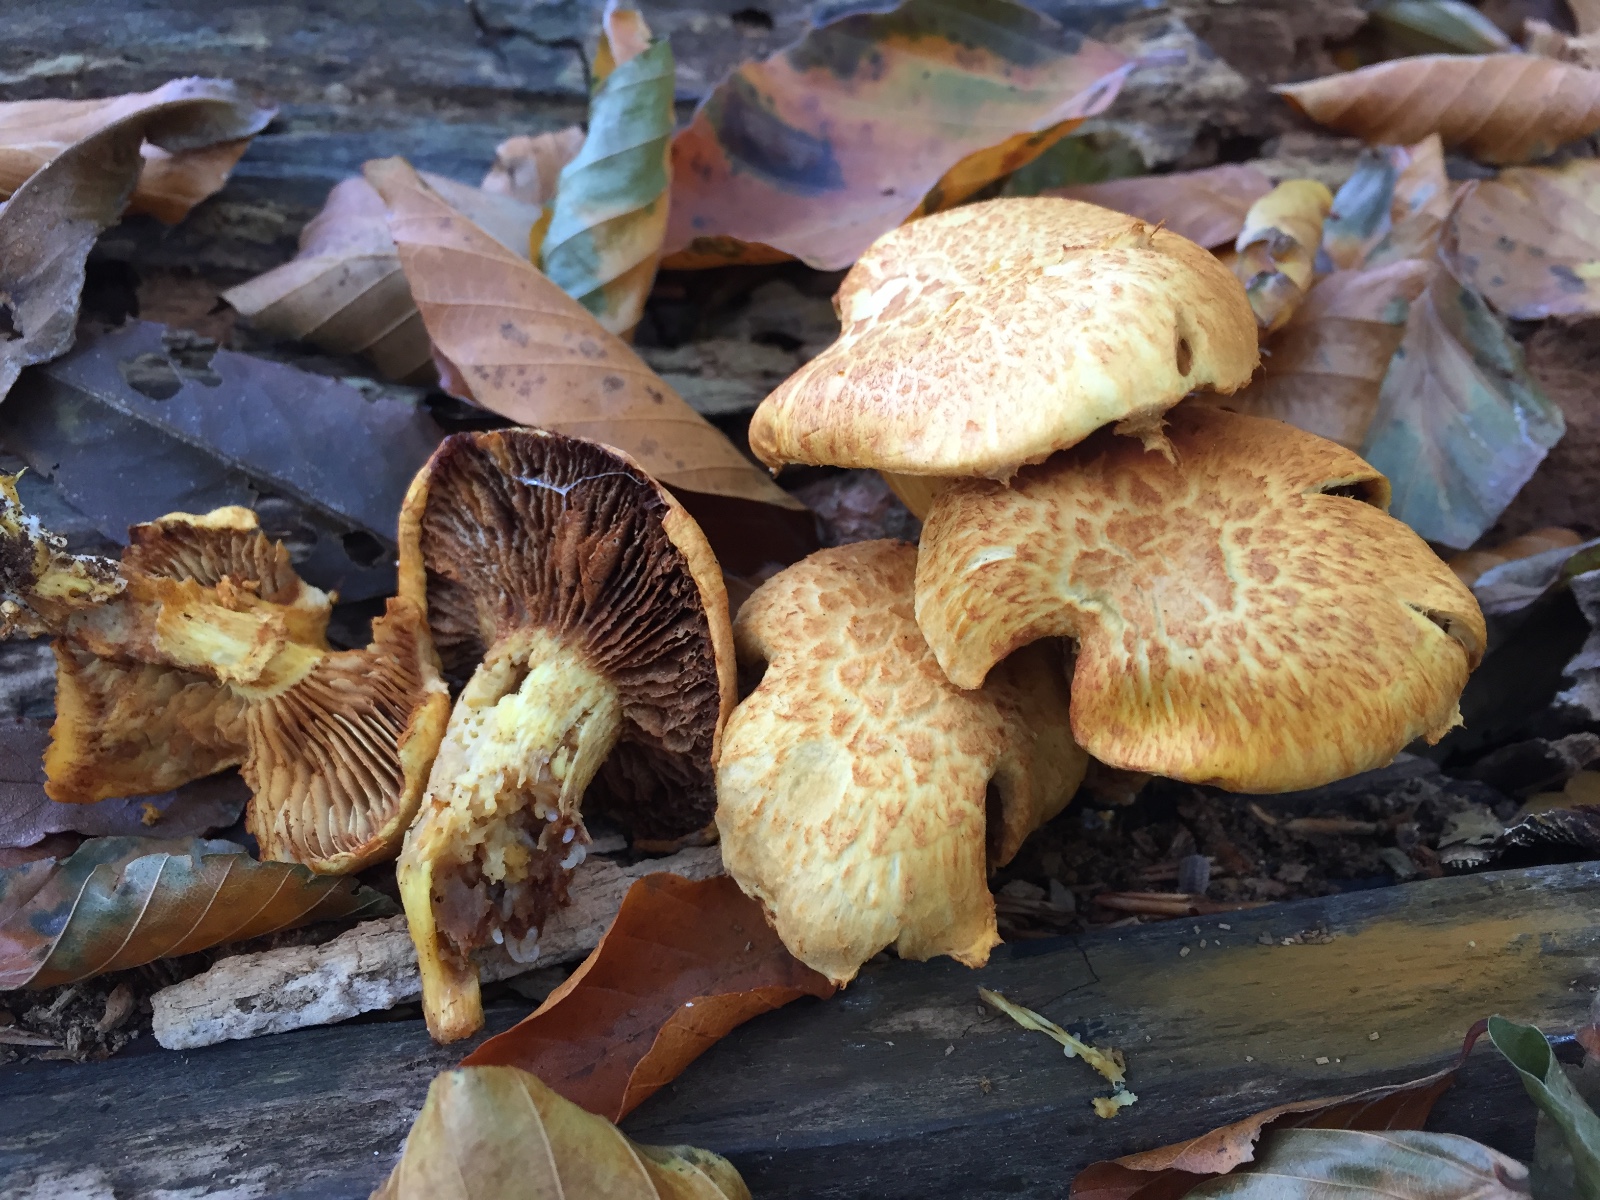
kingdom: Fungi
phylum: Basidiomycota
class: Agaricomycetes
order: Agaricales
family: Hymenogastraceae
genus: Gymnopilus
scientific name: Gymnopilus spectabilis
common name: fibret flammehat
